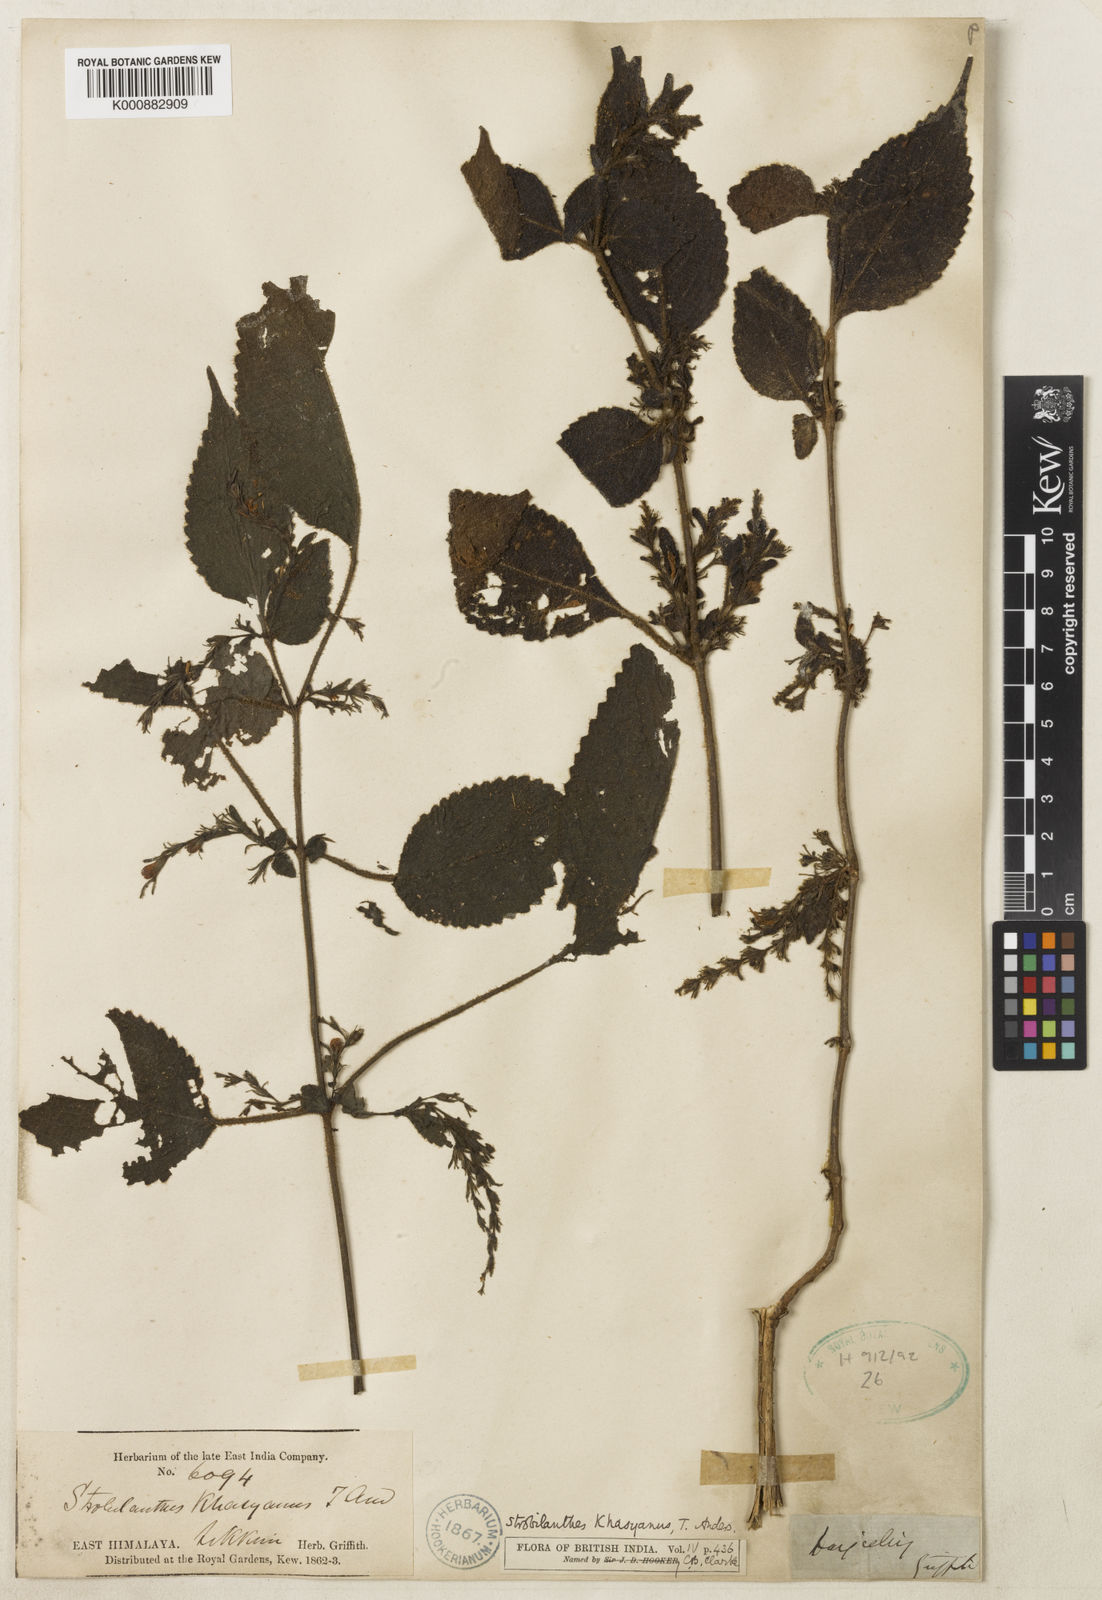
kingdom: Plantae
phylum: Tracheophyta
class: Magnoliopsida
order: Lamiales
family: Acanthaceae
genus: Strobilanthes
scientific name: Strobilanthes khasyana
